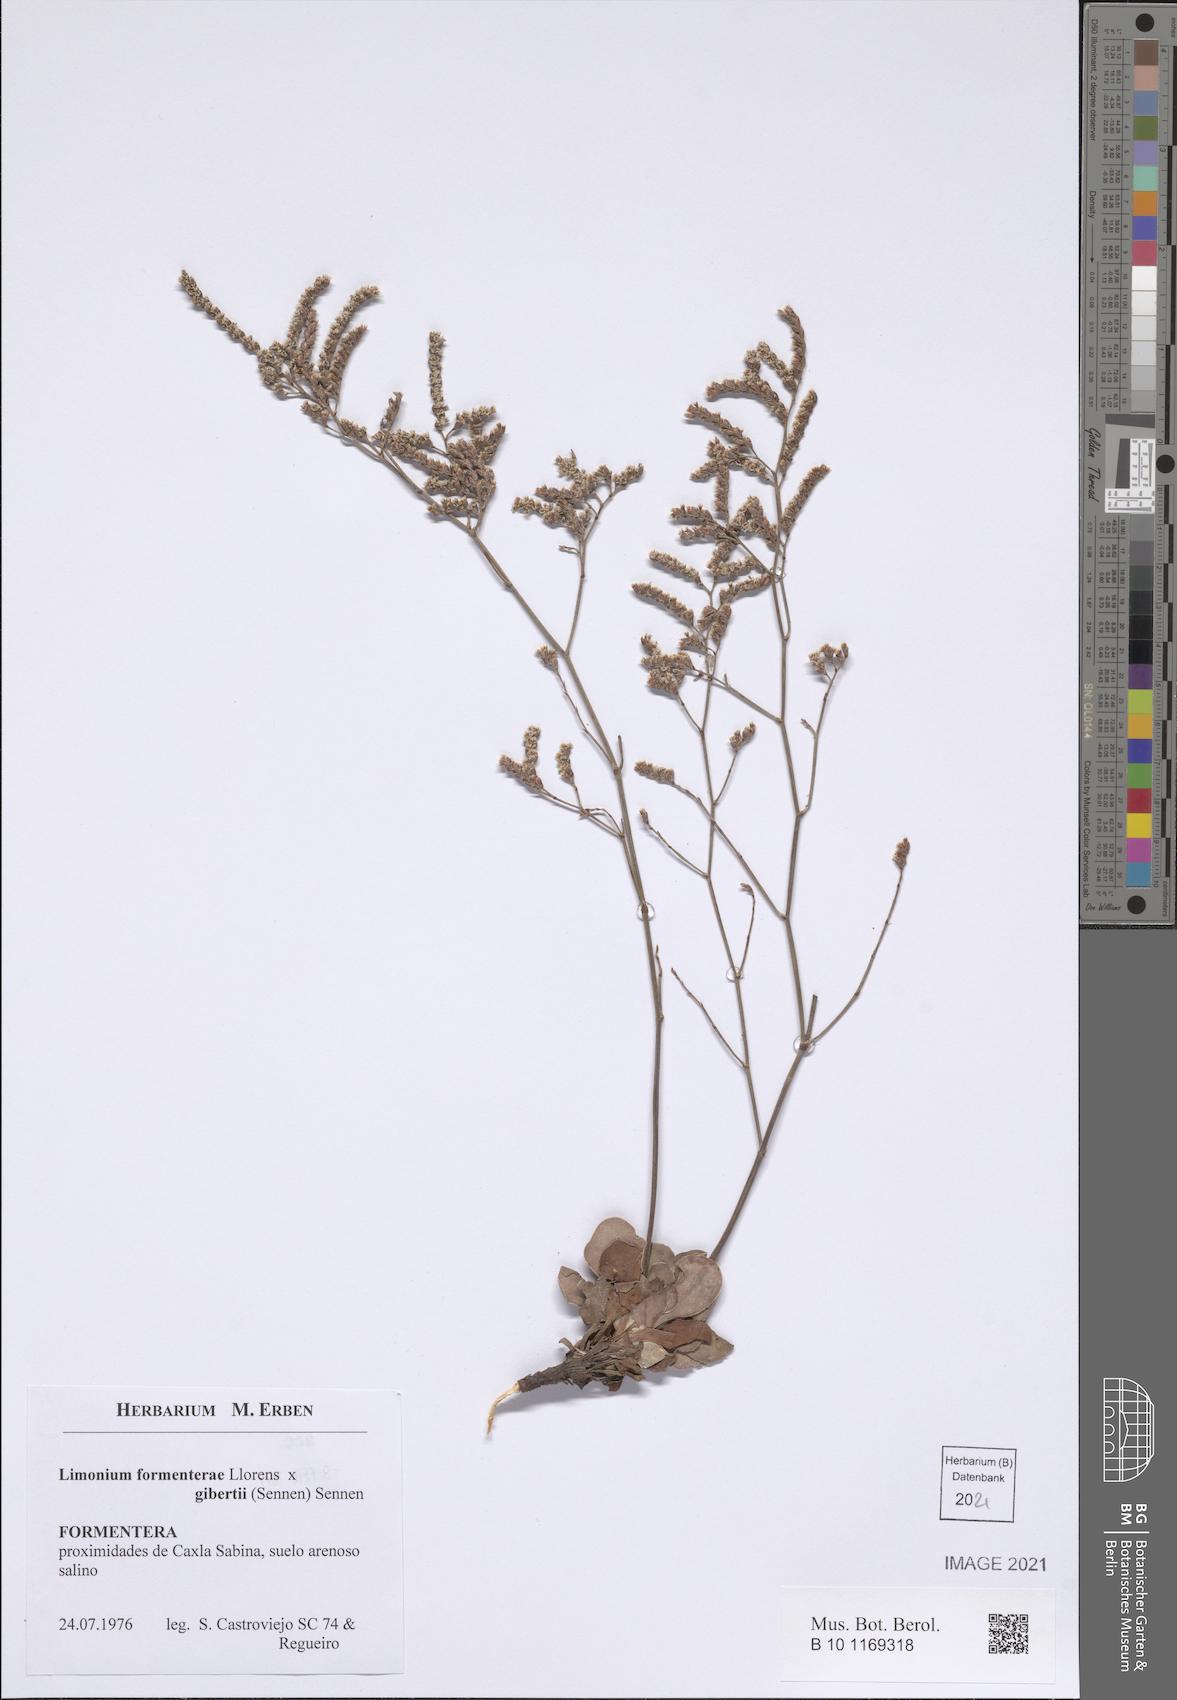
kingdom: Plantae
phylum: Tracheophyta
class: Magnoliopsida
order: Caryophyllales
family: Plumbaginaceae
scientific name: Plumbaginaceae
